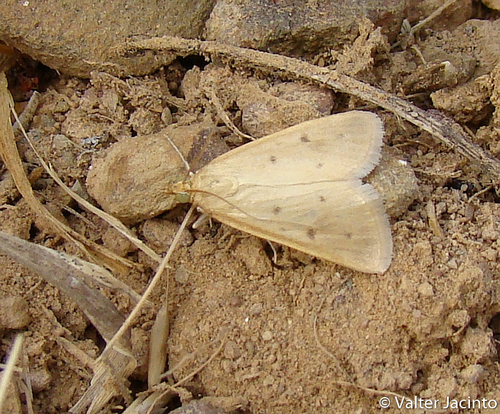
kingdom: Animalia
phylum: Arthropoda
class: Insecta
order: Lepidoptera
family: Crambidae
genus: Achyra
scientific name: Achyra nudalis
